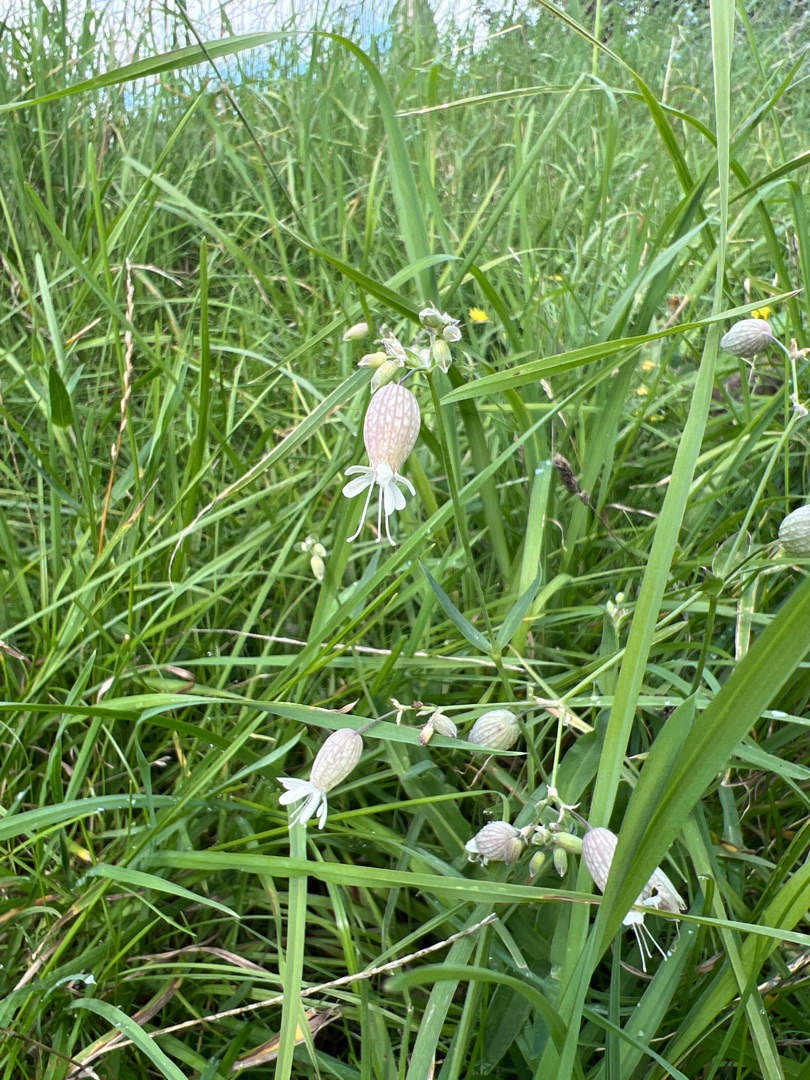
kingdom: Plantae
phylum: Tracheophyta
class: Magnoliopsida
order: Caryophyllales
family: Caryophyllaceae
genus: Silene
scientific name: Silene vulgaris
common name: Blæresmælde
